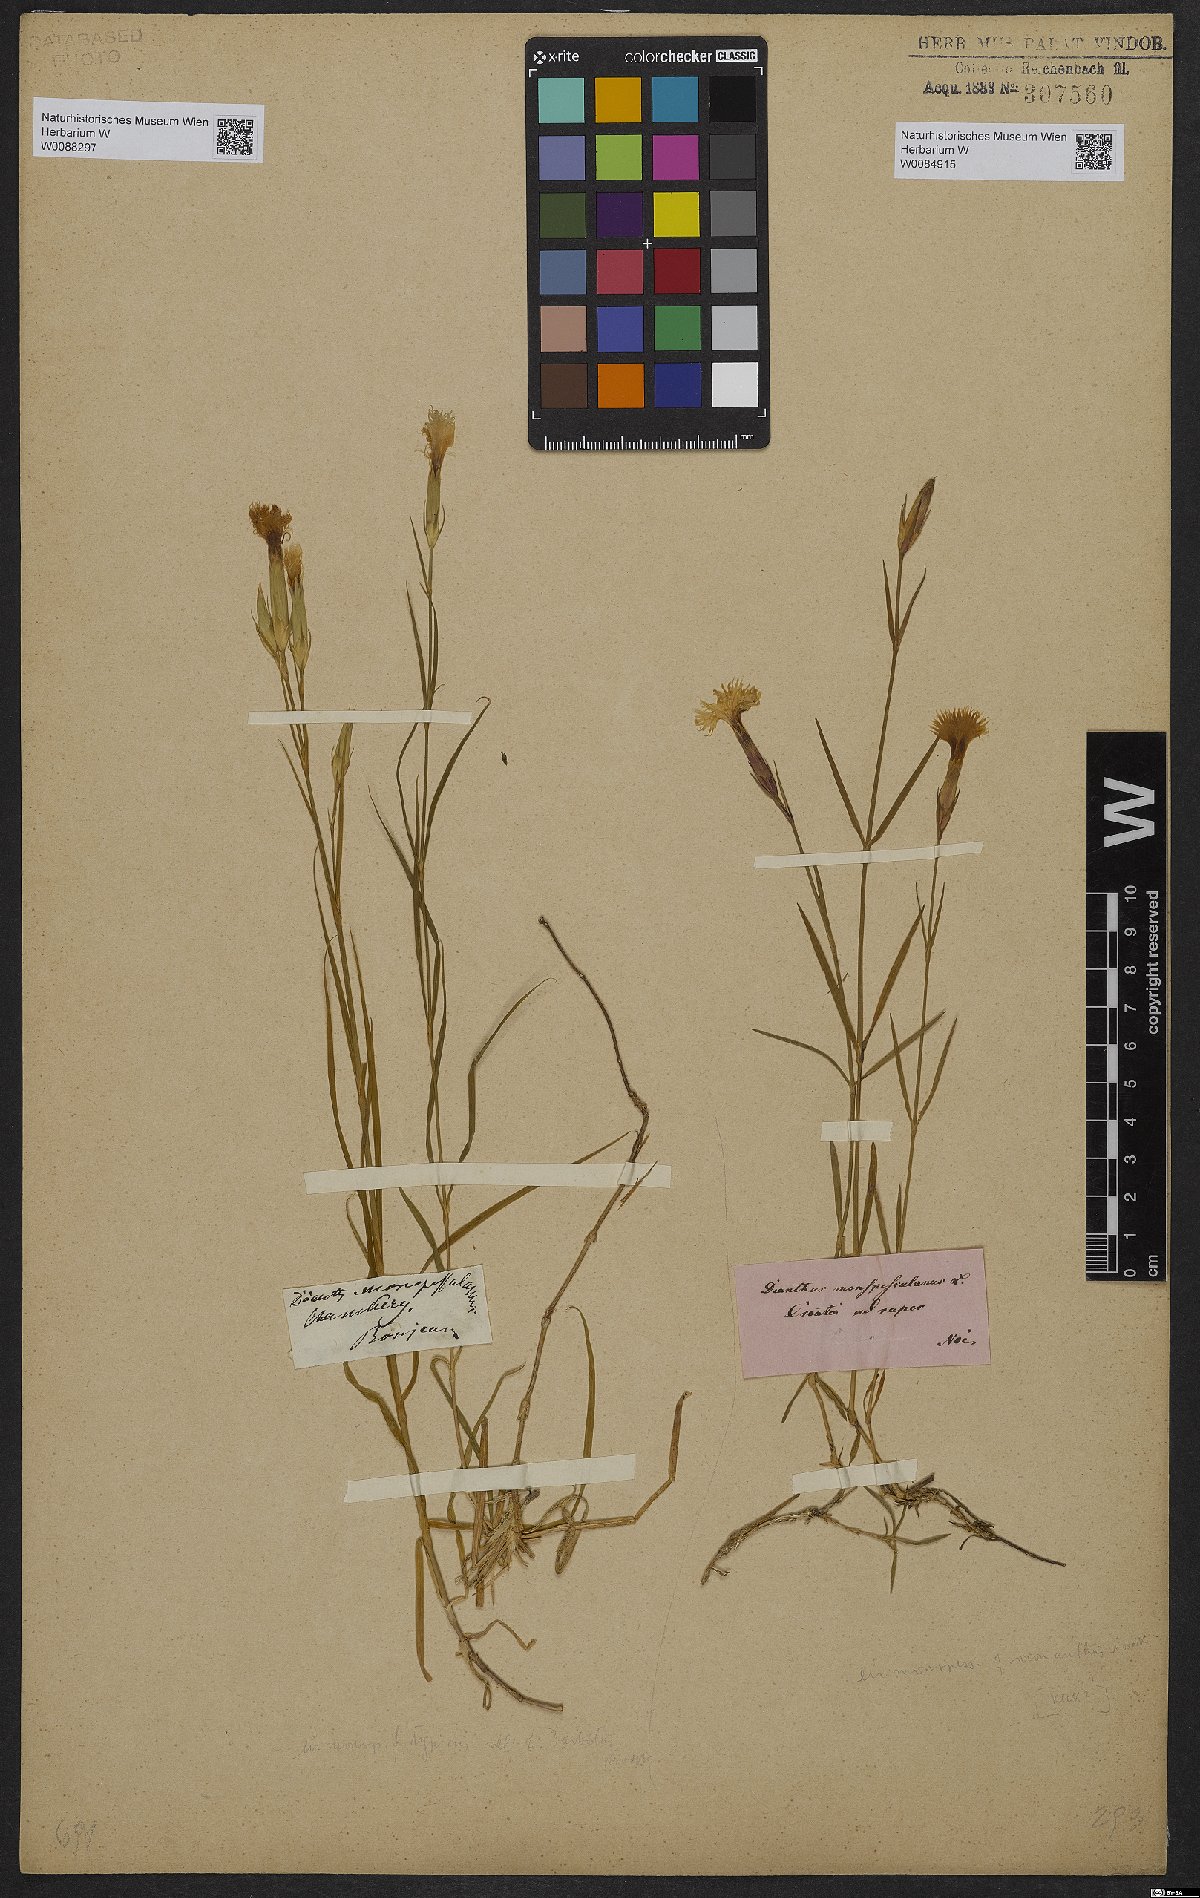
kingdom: Plantae
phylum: Tracheophyta
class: Magnoliopsida
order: Caryophyllales
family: Caryophyllaceae
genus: Dianthus
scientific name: Dianthus hyssopifolius
